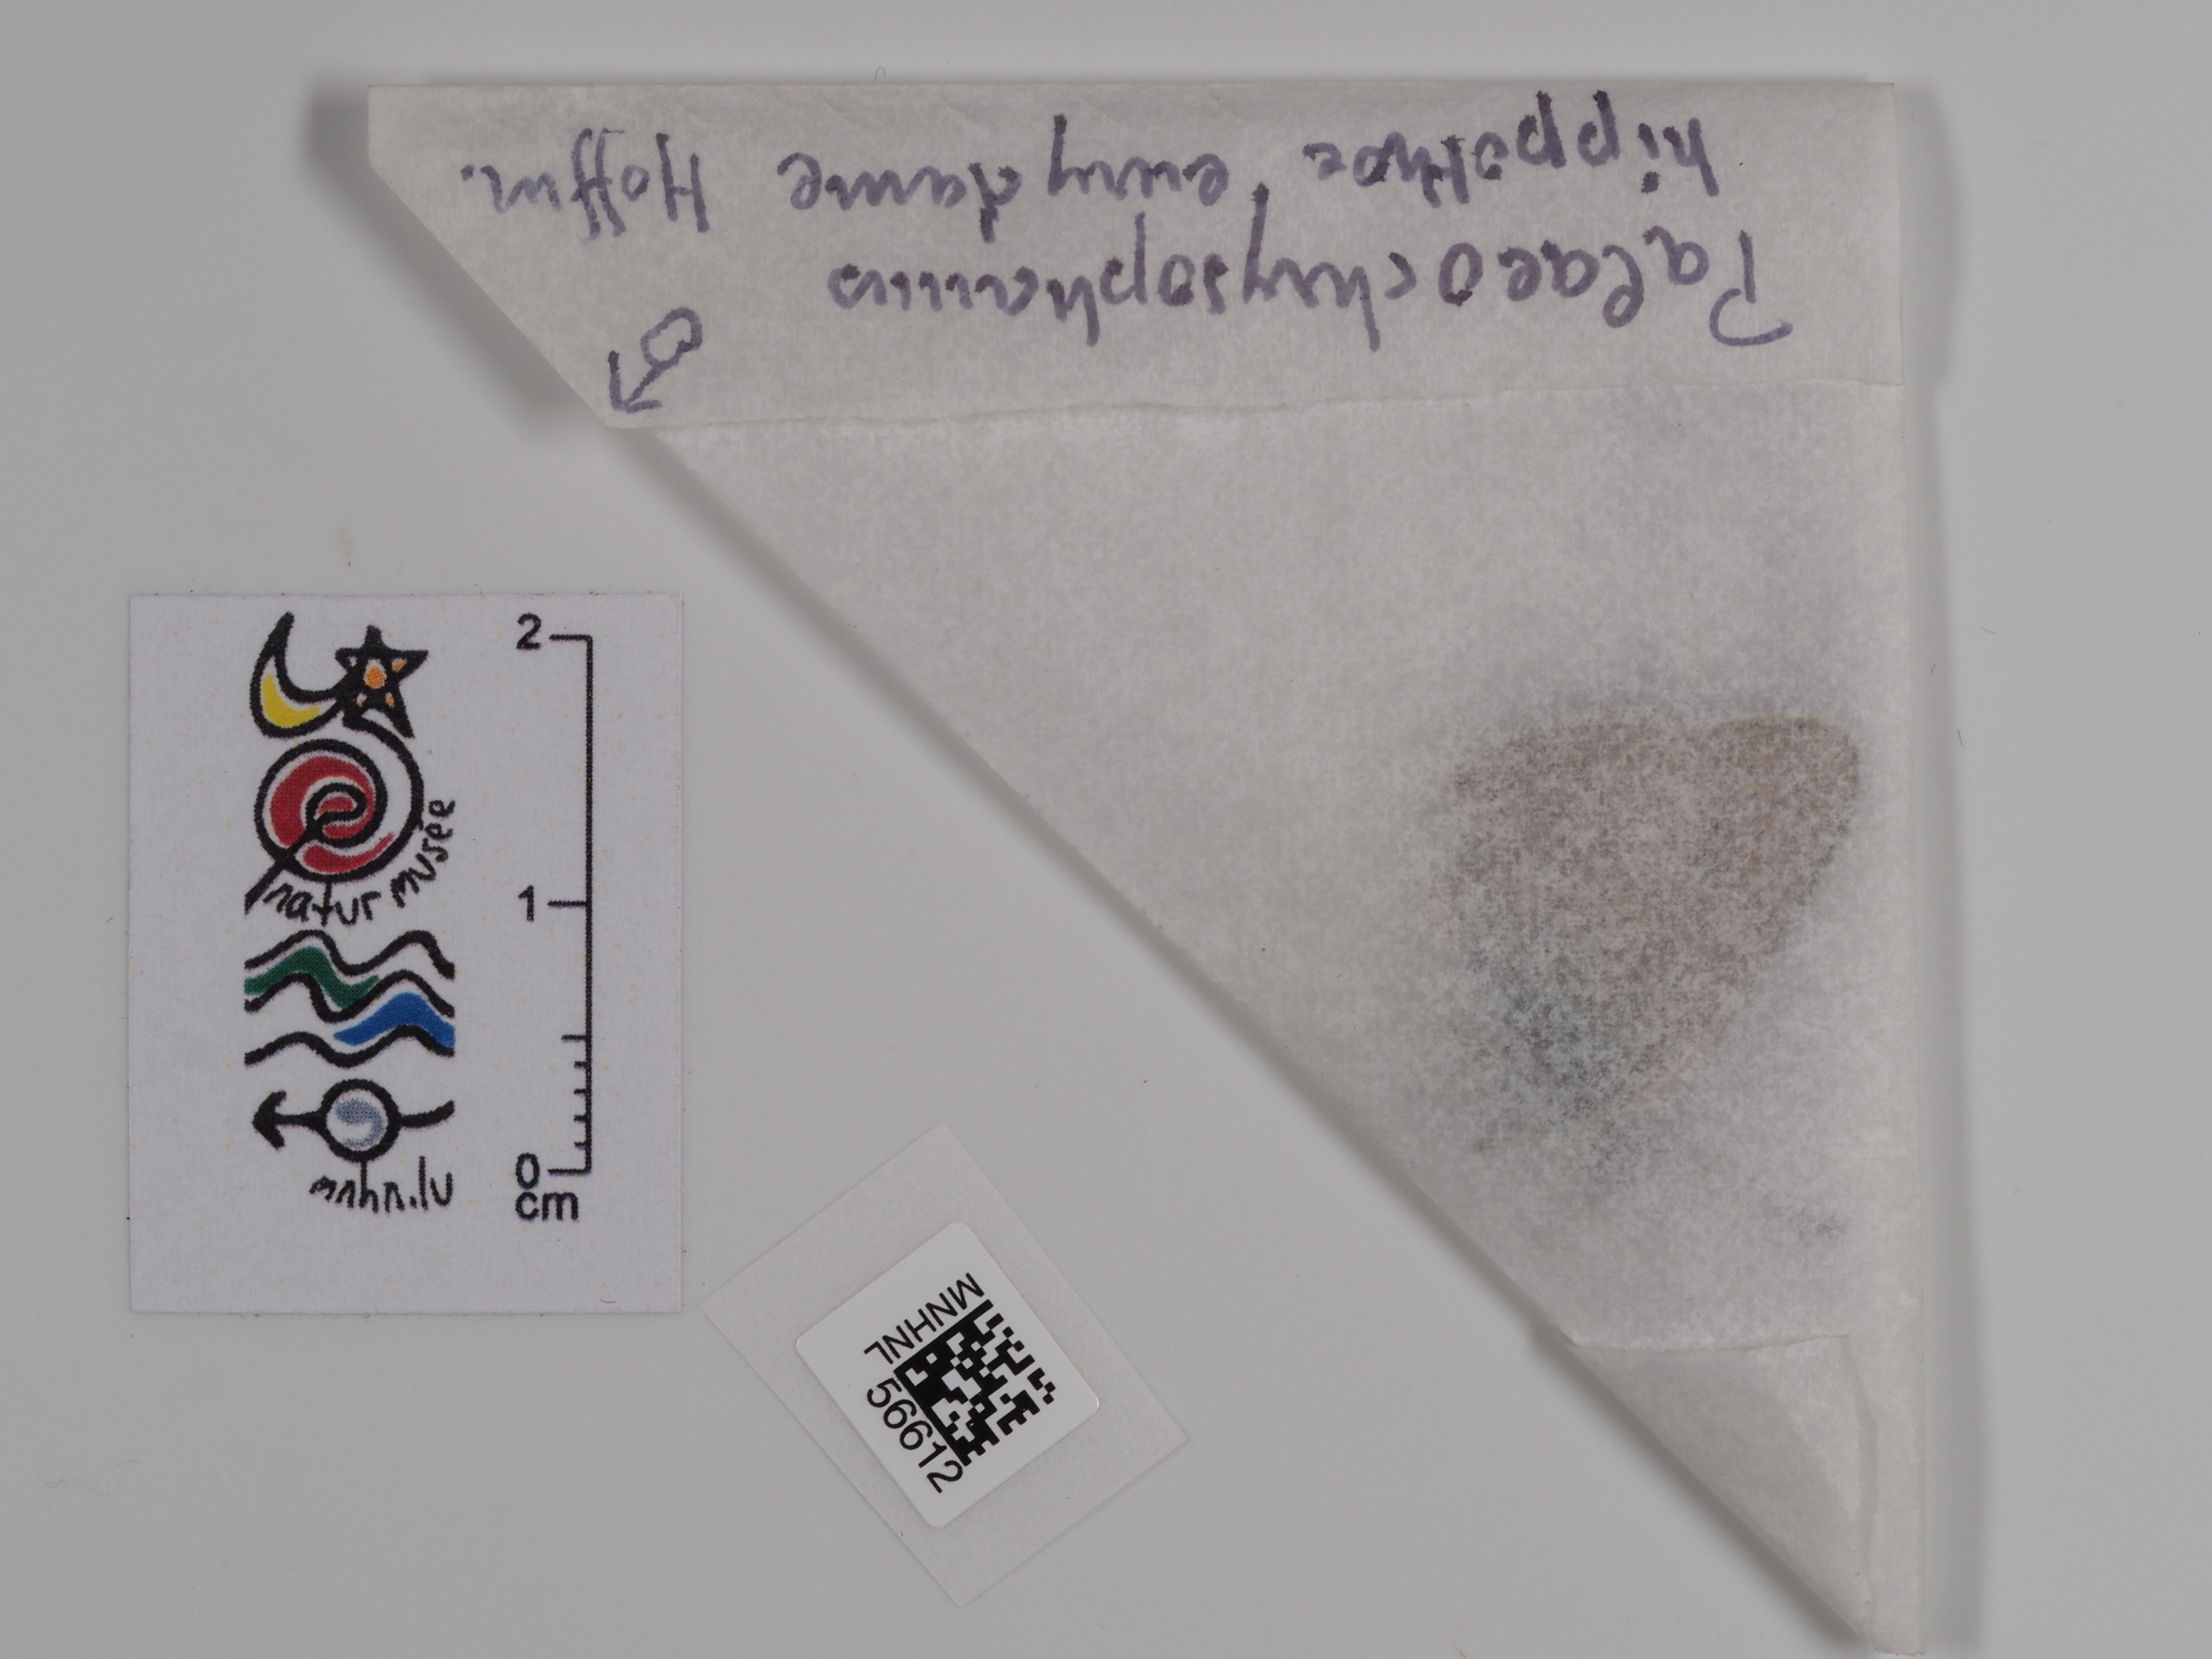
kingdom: Animalia
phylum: Arthropoda
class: Insecta
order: Lepidoptera
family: Lycaenidae
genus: Palaeochrysophanus
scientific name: Palaeochrysophanus hippothoe
